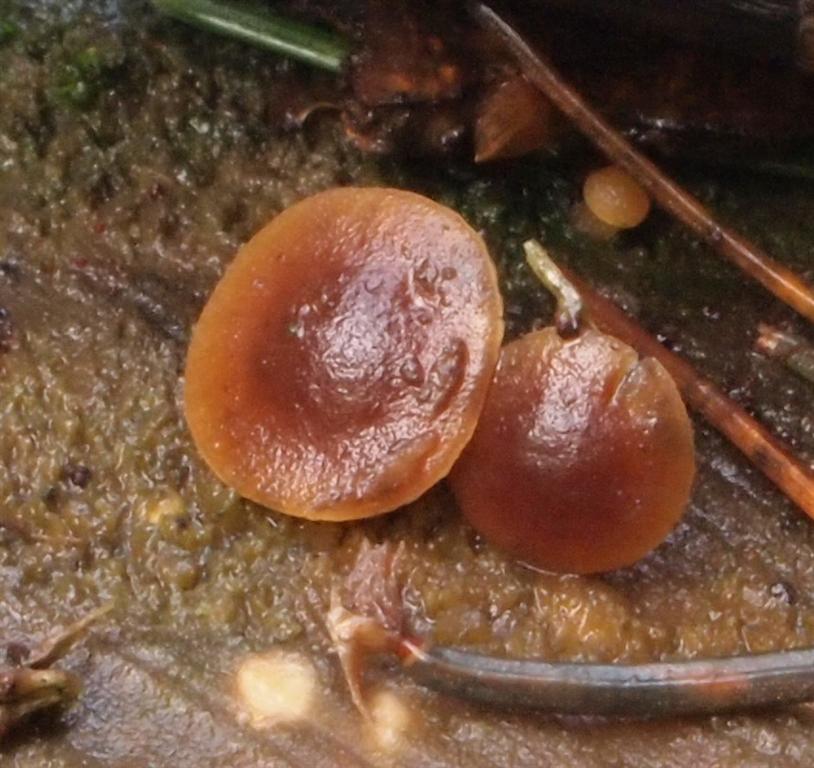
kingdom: Fungi
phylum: Basidiomycota
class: Agaricomycetes
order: Agaricales
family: Strophariaceae
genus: Deconica
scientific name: Deconica horizontalis
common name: ved-stråhat
